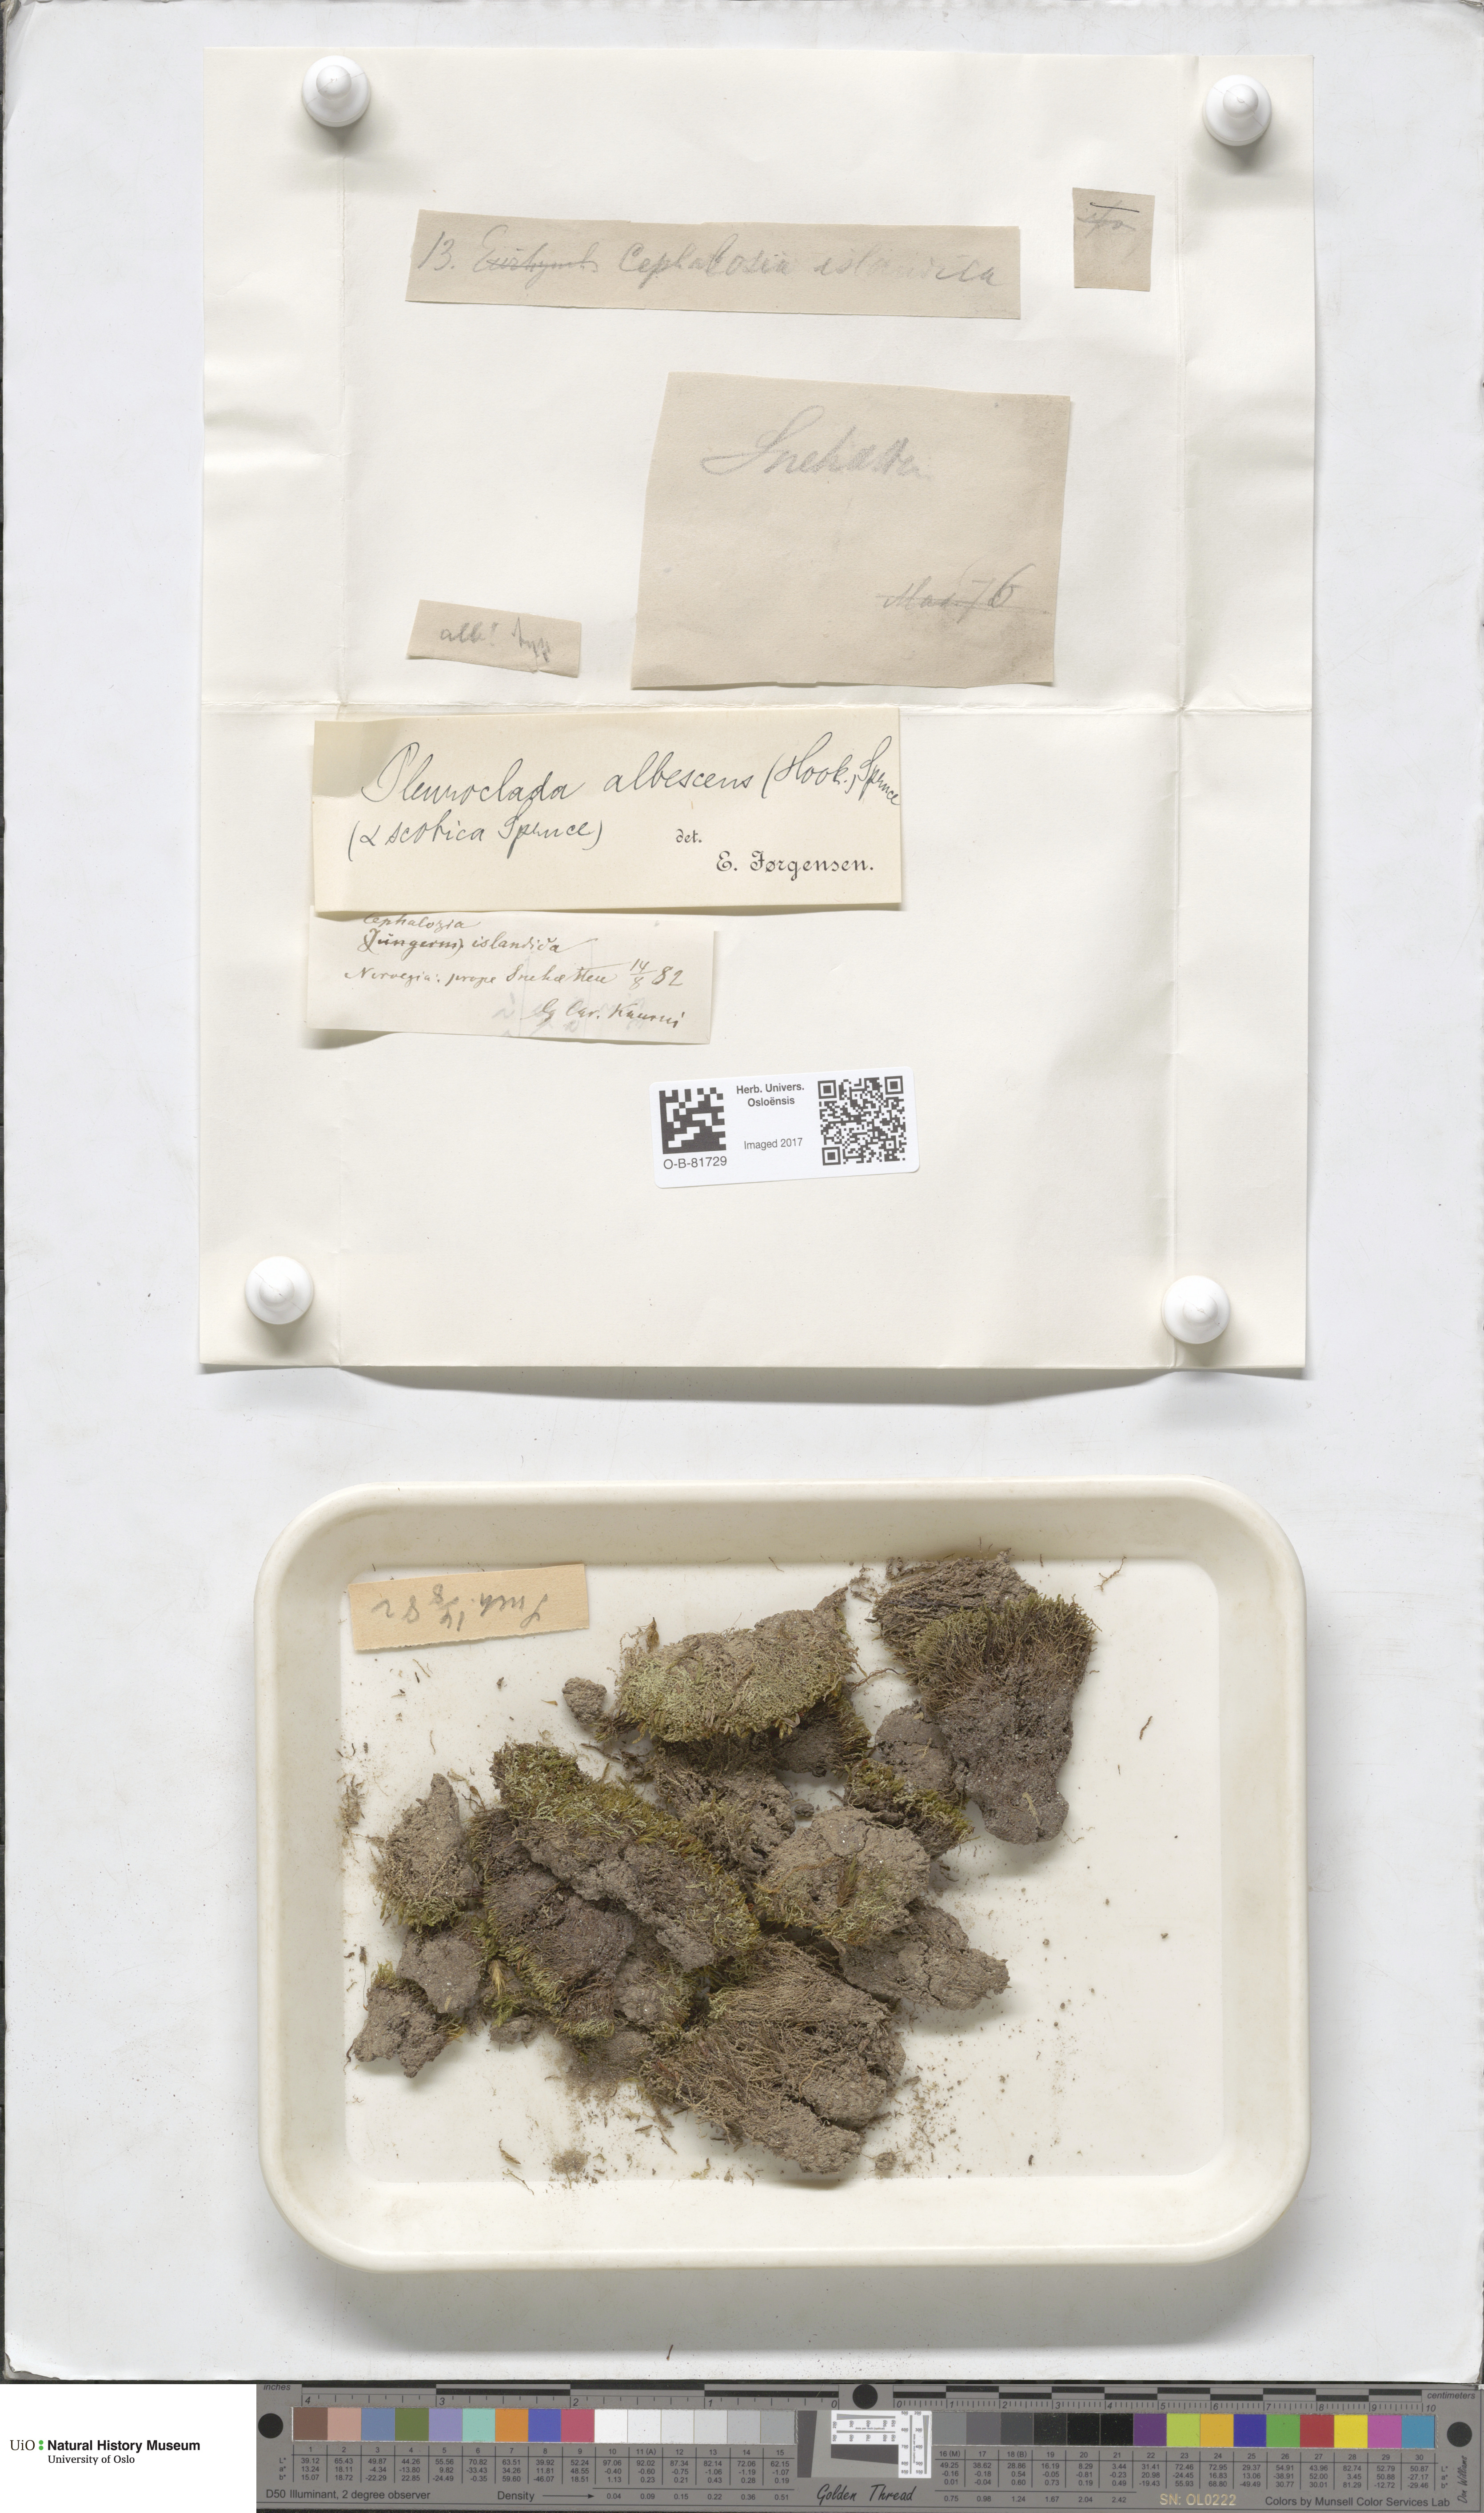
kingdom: Plantae
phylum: Marchantiophyta
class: Jungermanniopsida
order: Jungermanniales
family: Cephaloziaceae
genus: Fuscocephaloziopsis
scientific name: Fuscocephaloziopsis albescens
